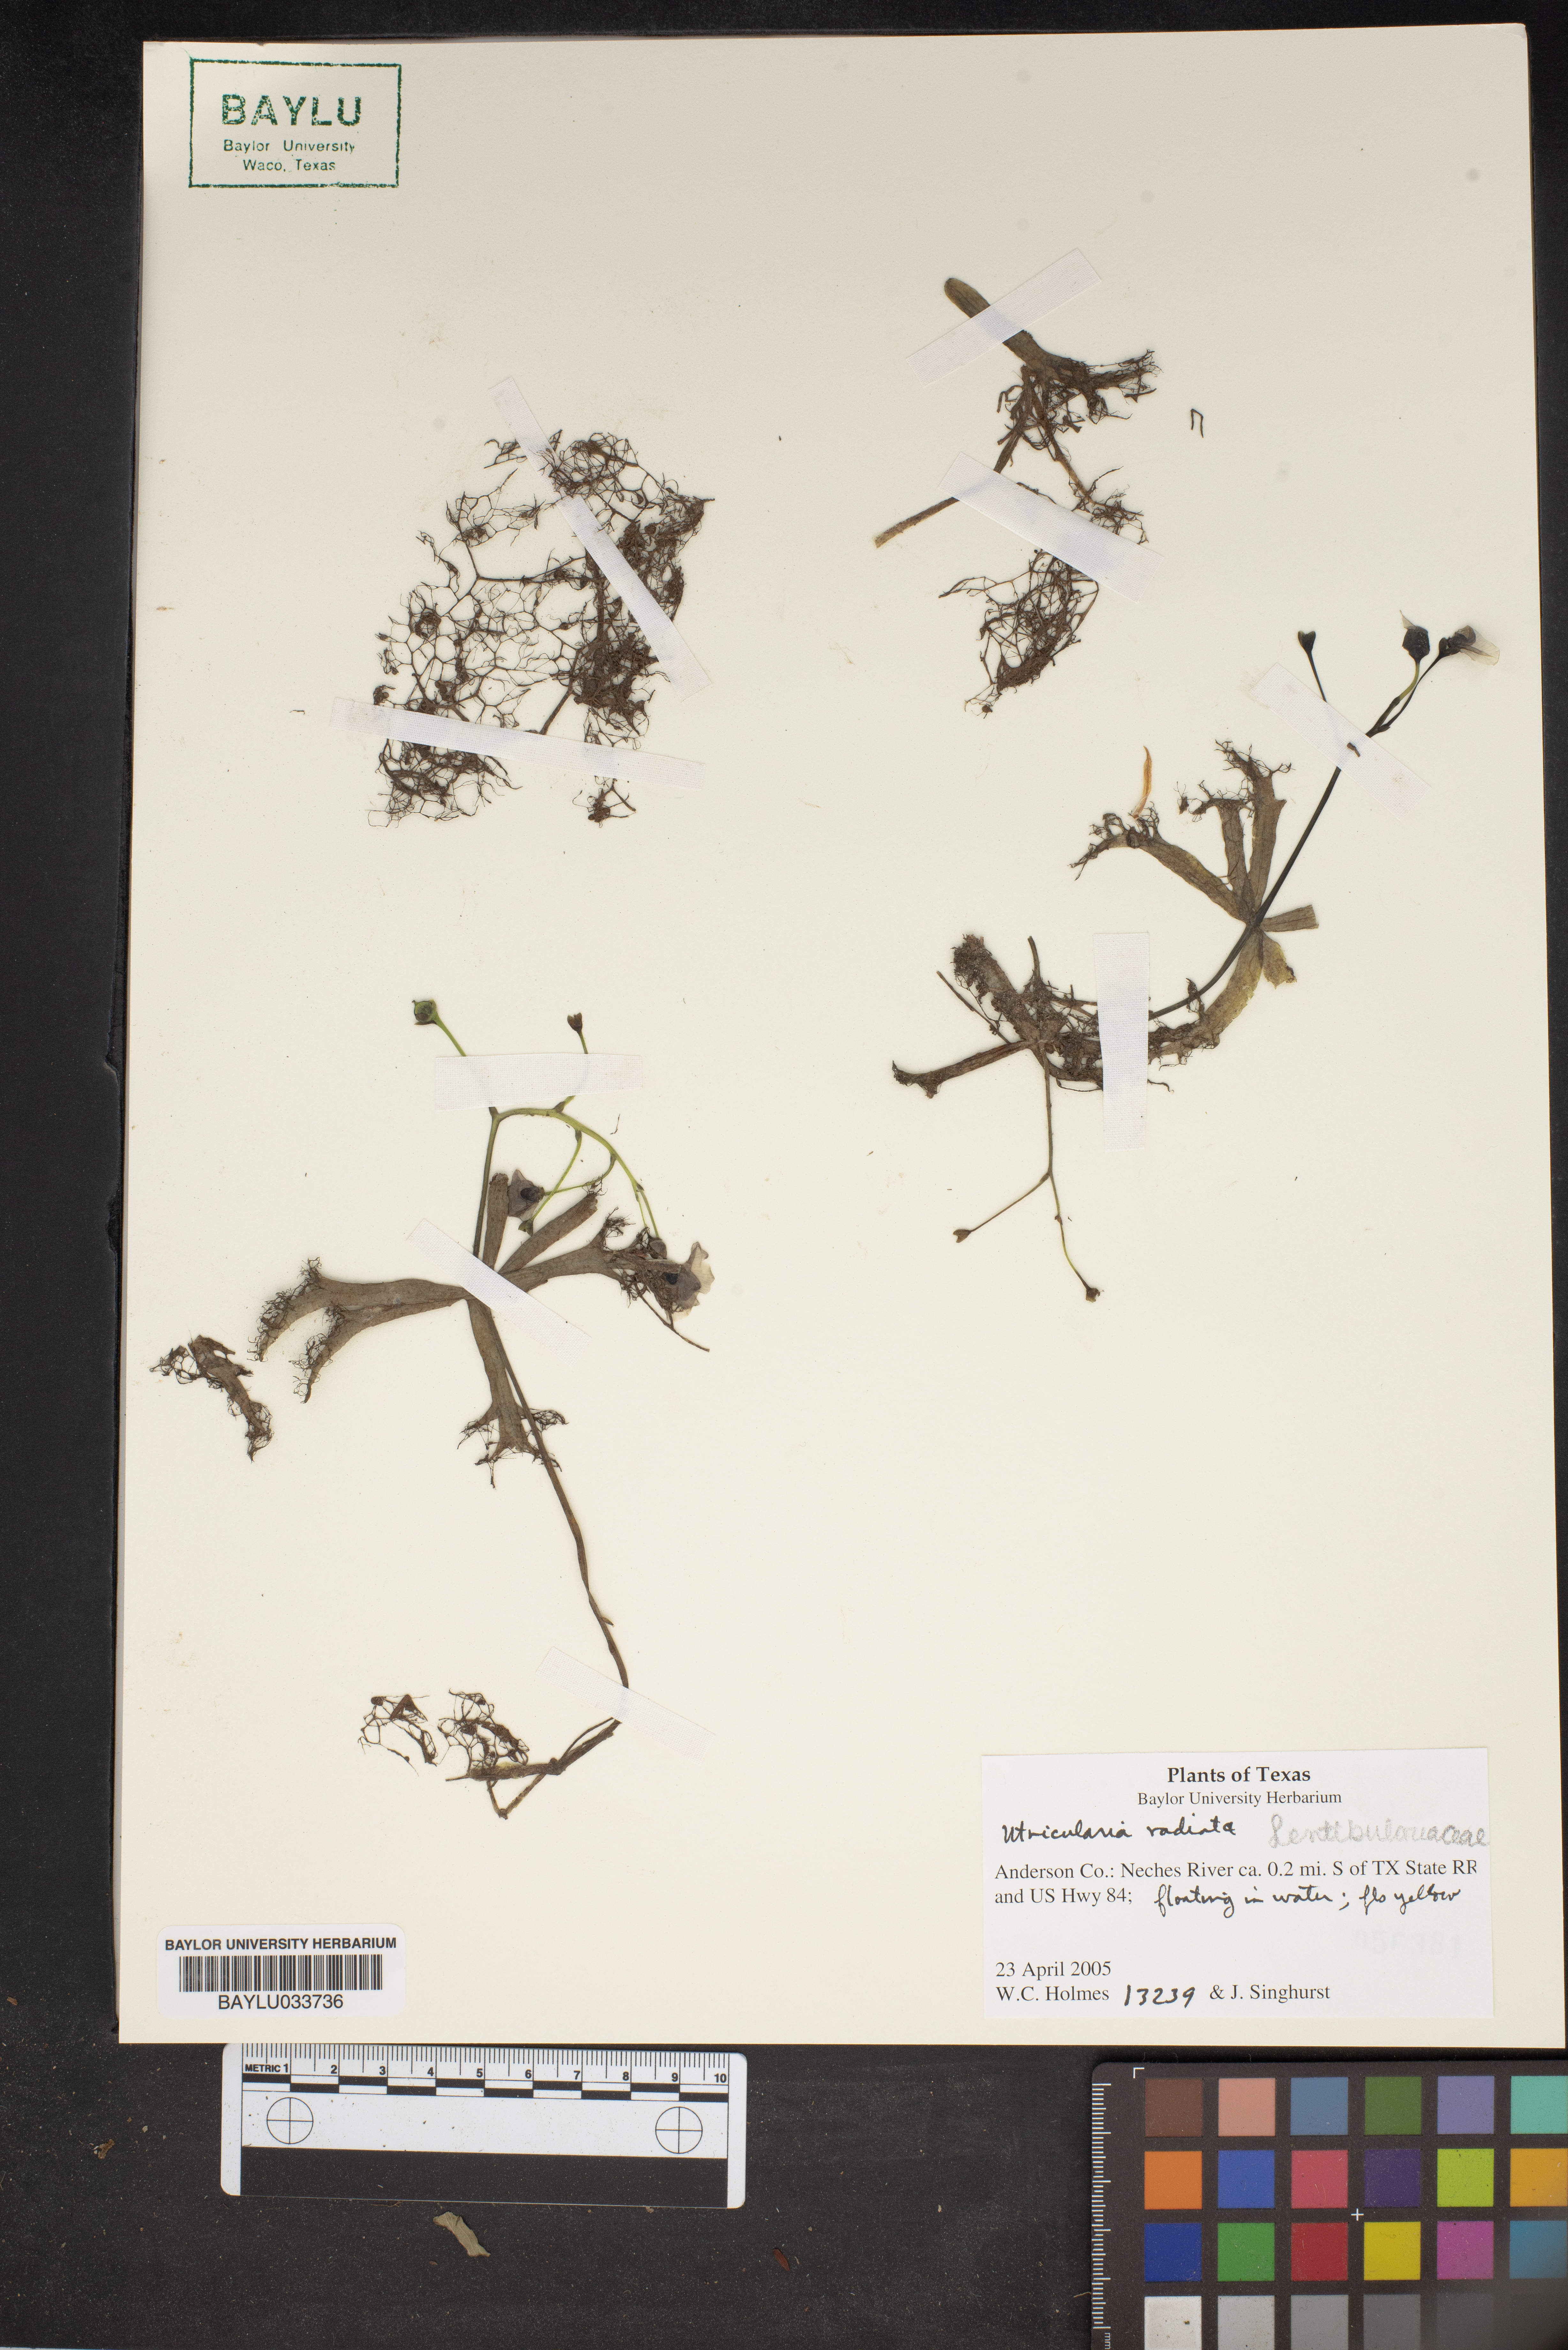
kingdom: Plantae
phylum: Tracheophyta
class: Magnoliopsida
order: Lamiales
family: Lentibulariaceae
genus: Utricularia
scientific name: Utricularia radiata
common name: Floating bladderwort
